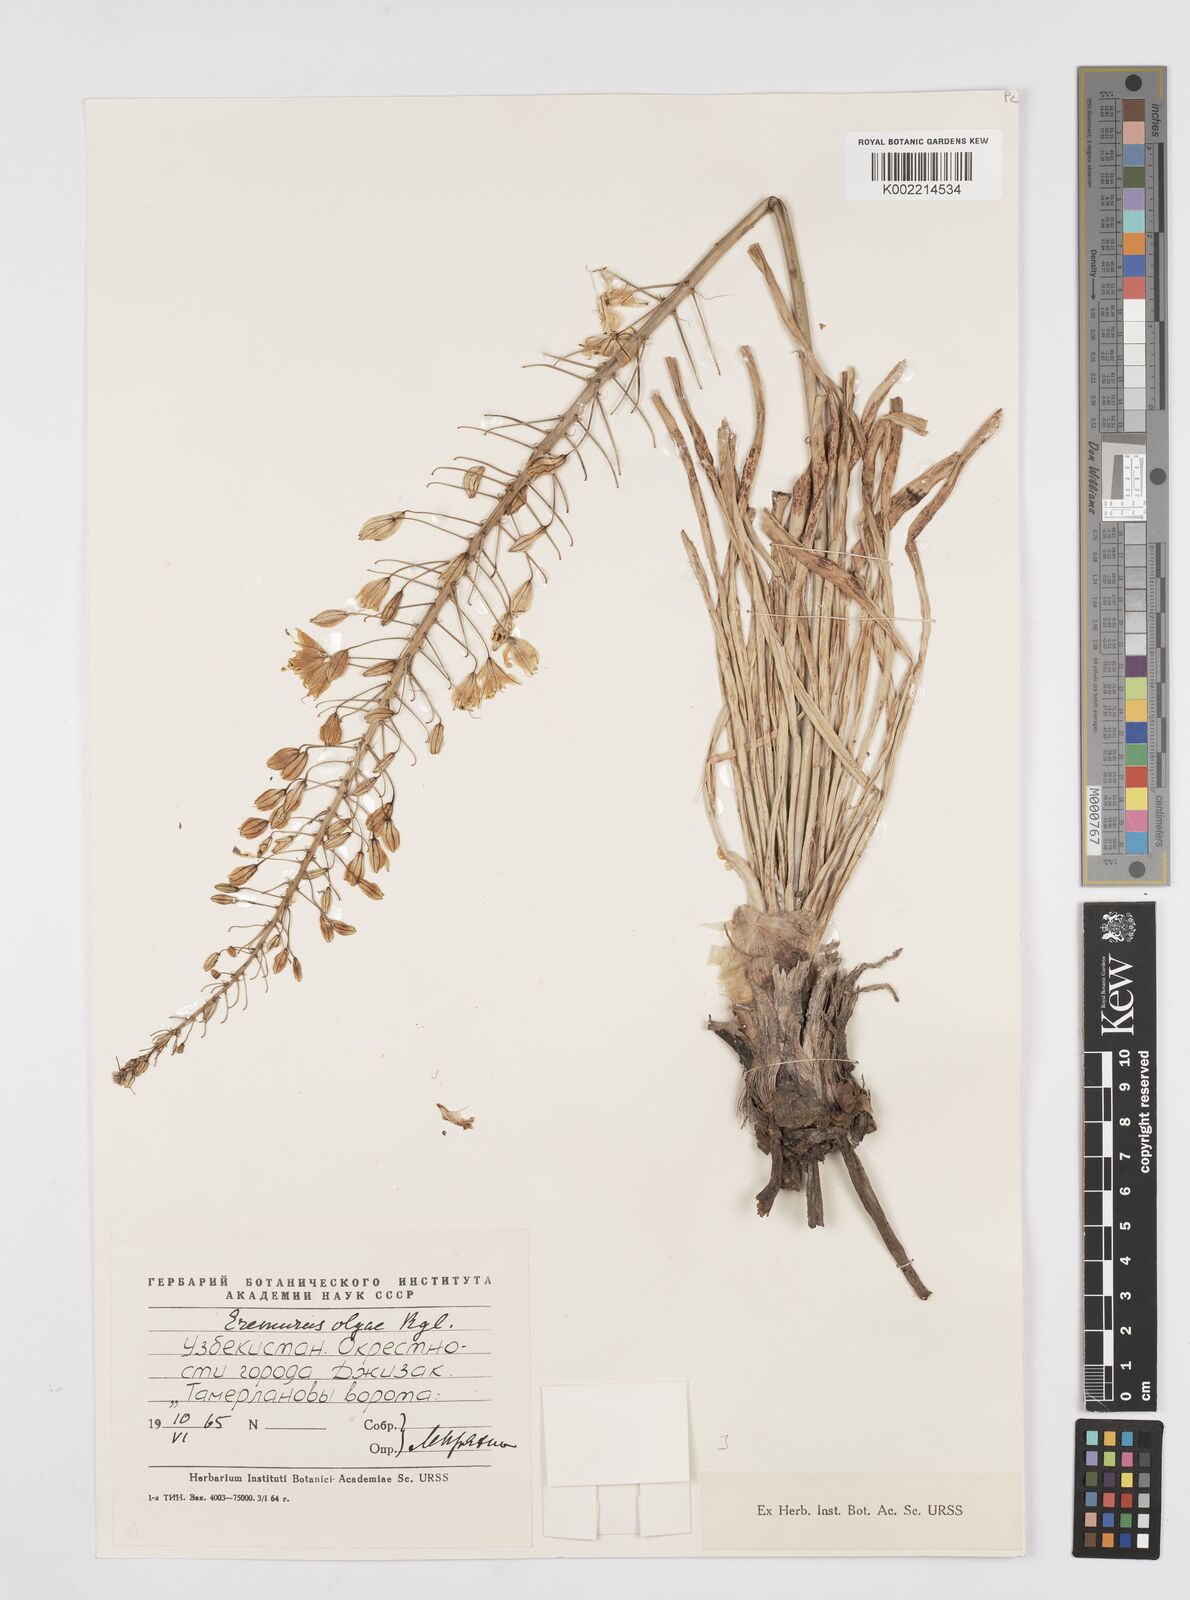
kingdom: Plantae
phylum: Tracheophyta
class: Liliopsida
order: Asparagales
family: Asphodelaceae
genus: Eremurus
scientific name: Eremurus olgae
